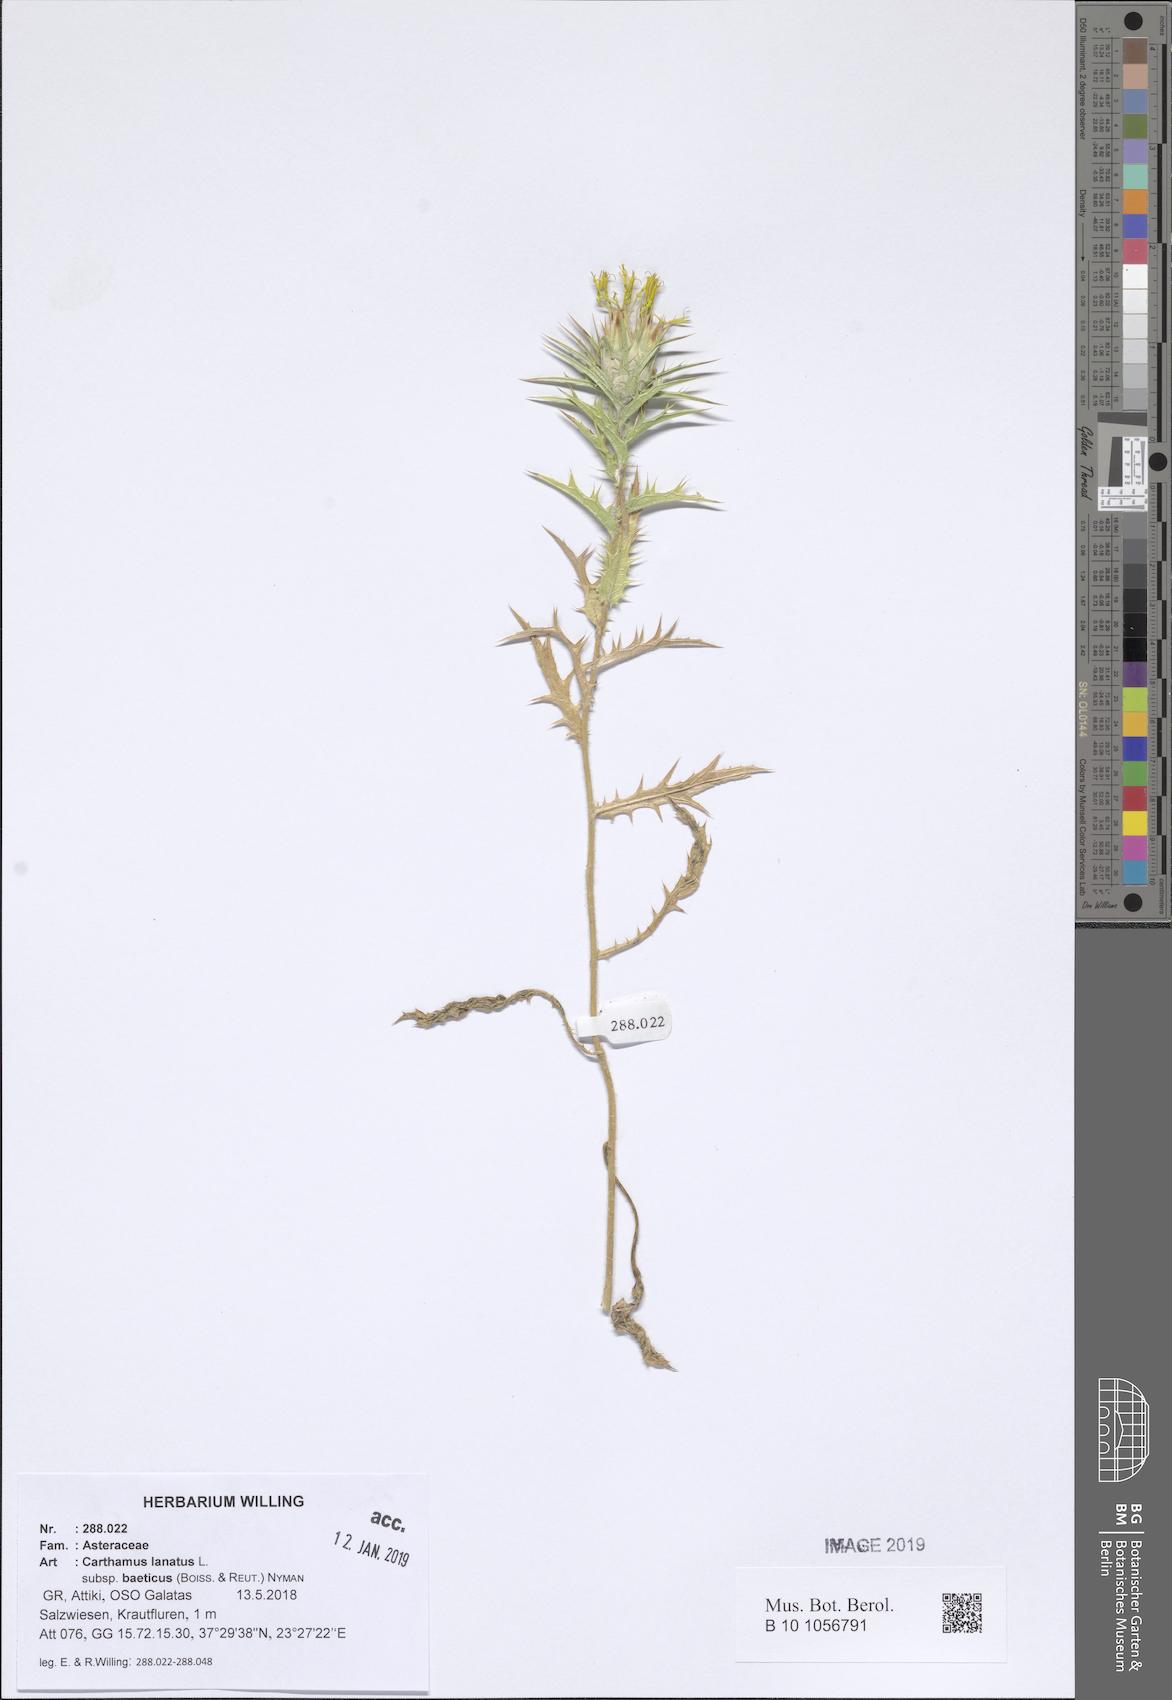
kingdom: Plantae
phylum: Tracheophyta
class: Magnoliopsida
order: Asterales
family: Asteraceae
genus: Carthamus
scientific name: Carthamus creticus
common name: Smooth distaff thistle
